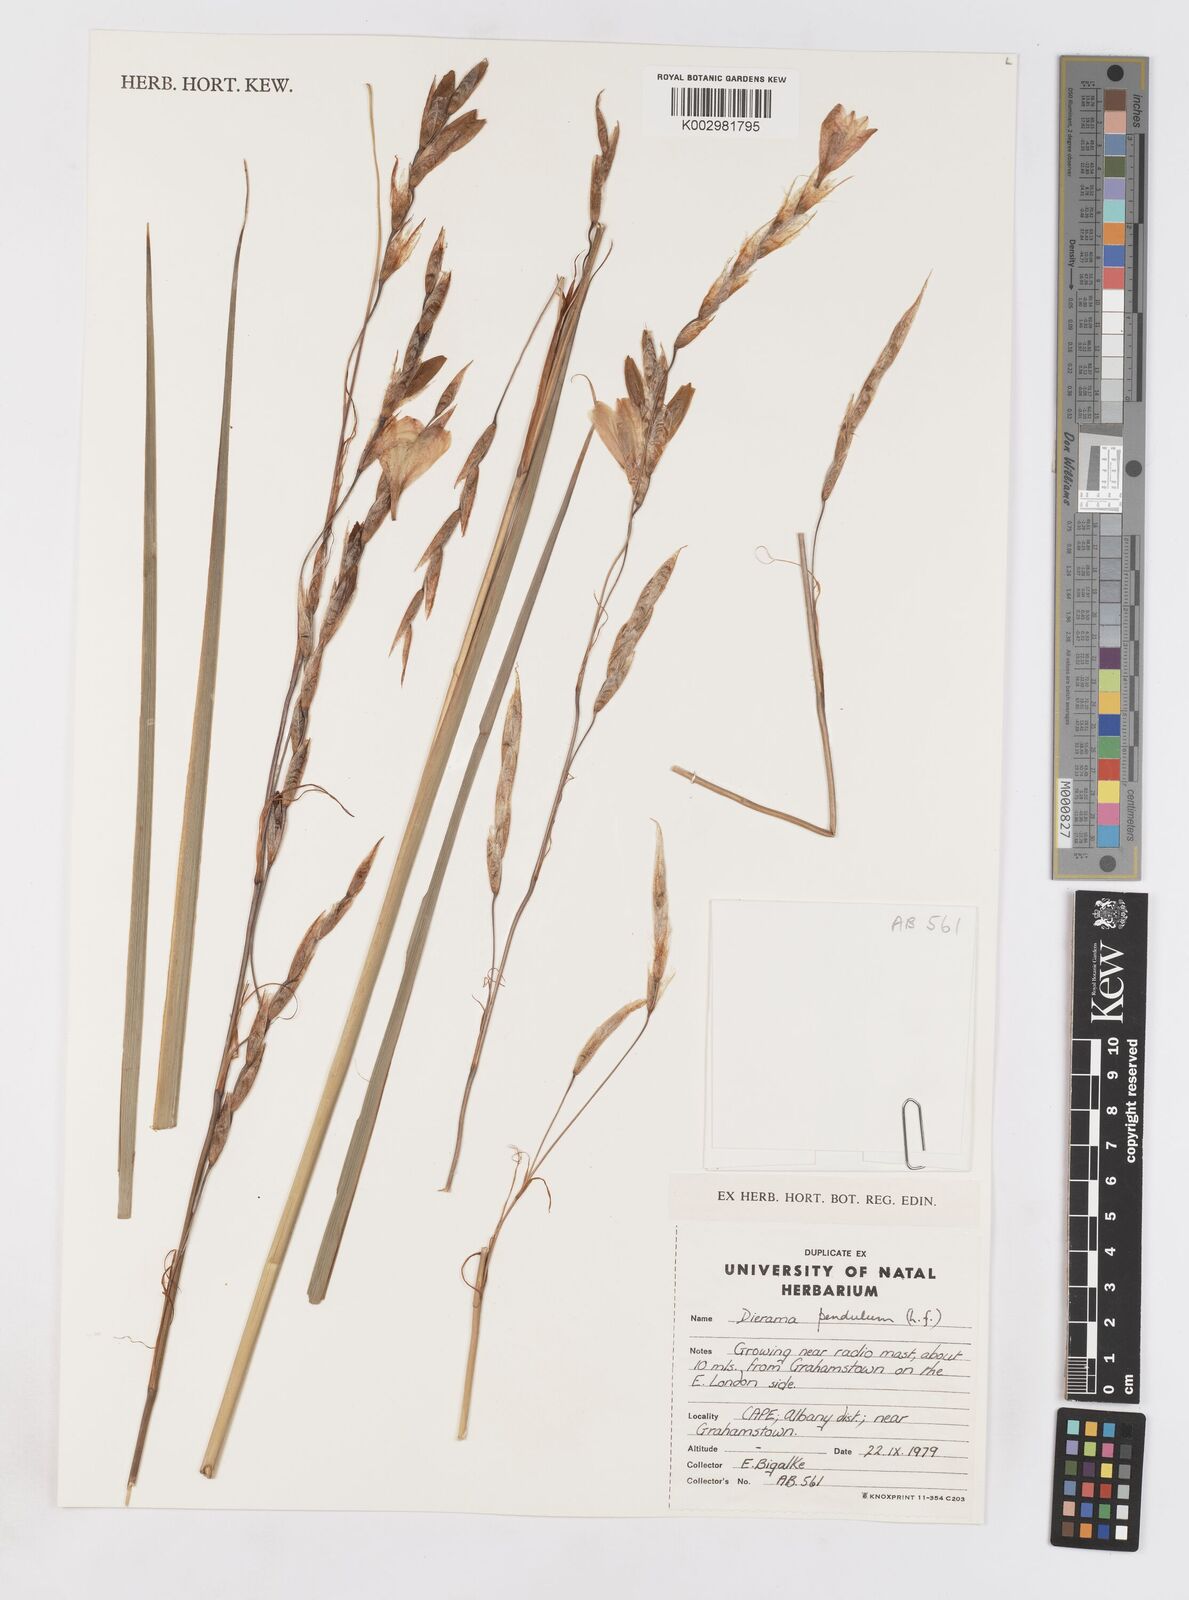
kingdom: Plantae
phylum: Tracheophyta
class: Liliopsida
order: Asparagales
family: Iridaceae
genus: Dierama
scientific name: Dierama pendulum
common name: Grassy-bell
